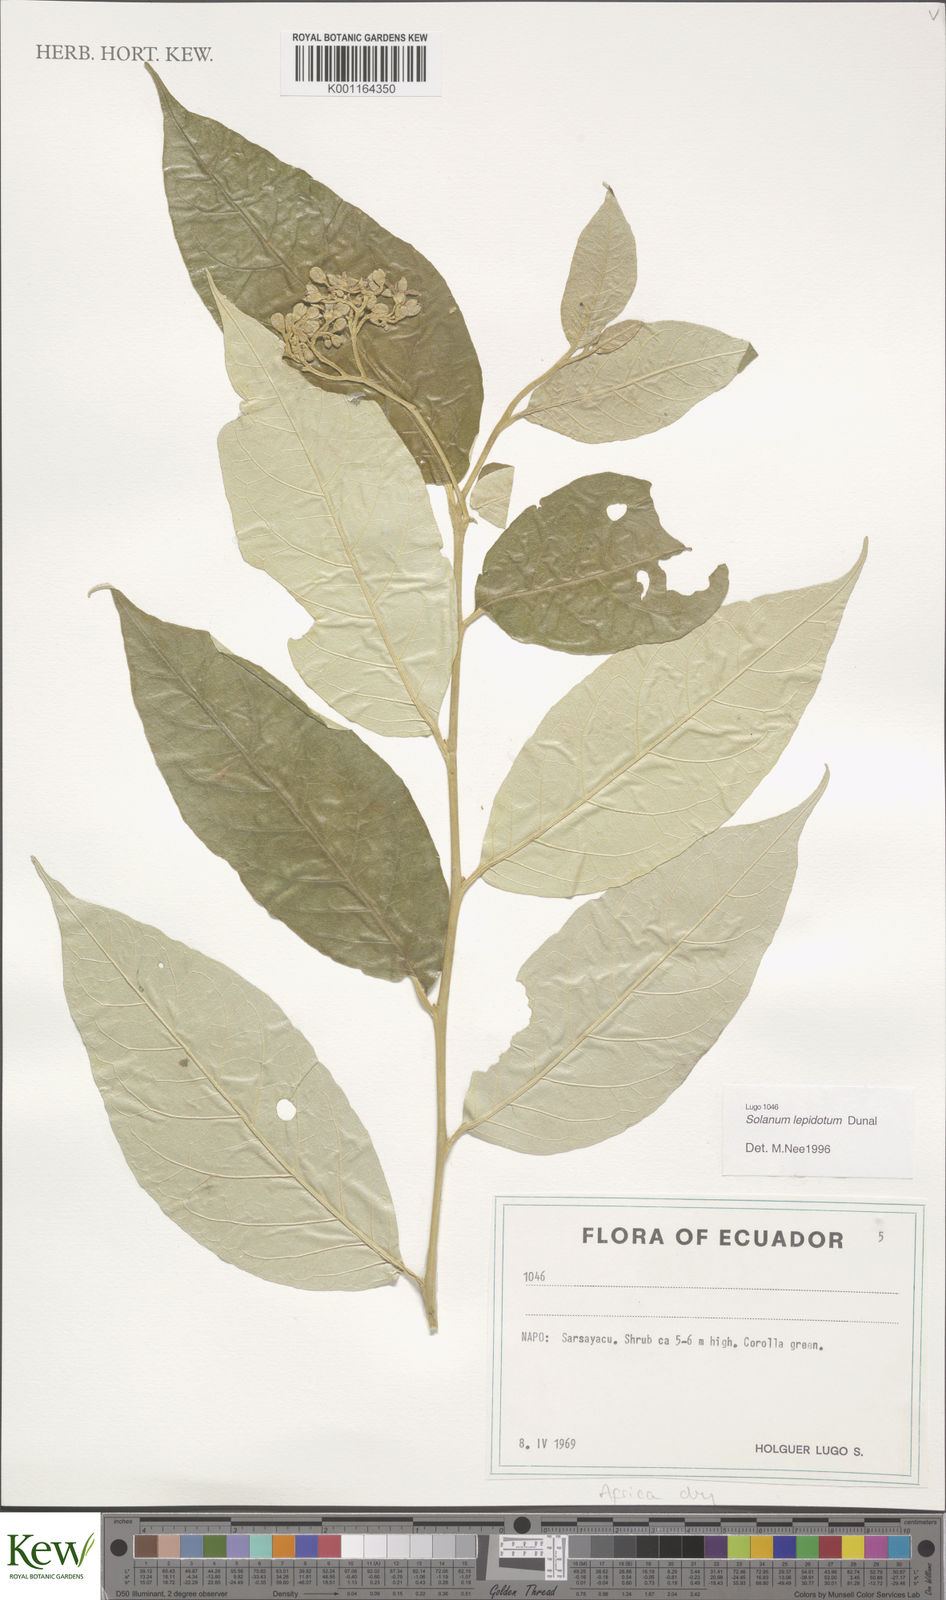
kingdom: Plantae
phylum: Tracheophyta
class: Magnoliopsida
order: Solanales
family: Solanaceae
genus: Solanum
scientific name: Solanum lepidotum
